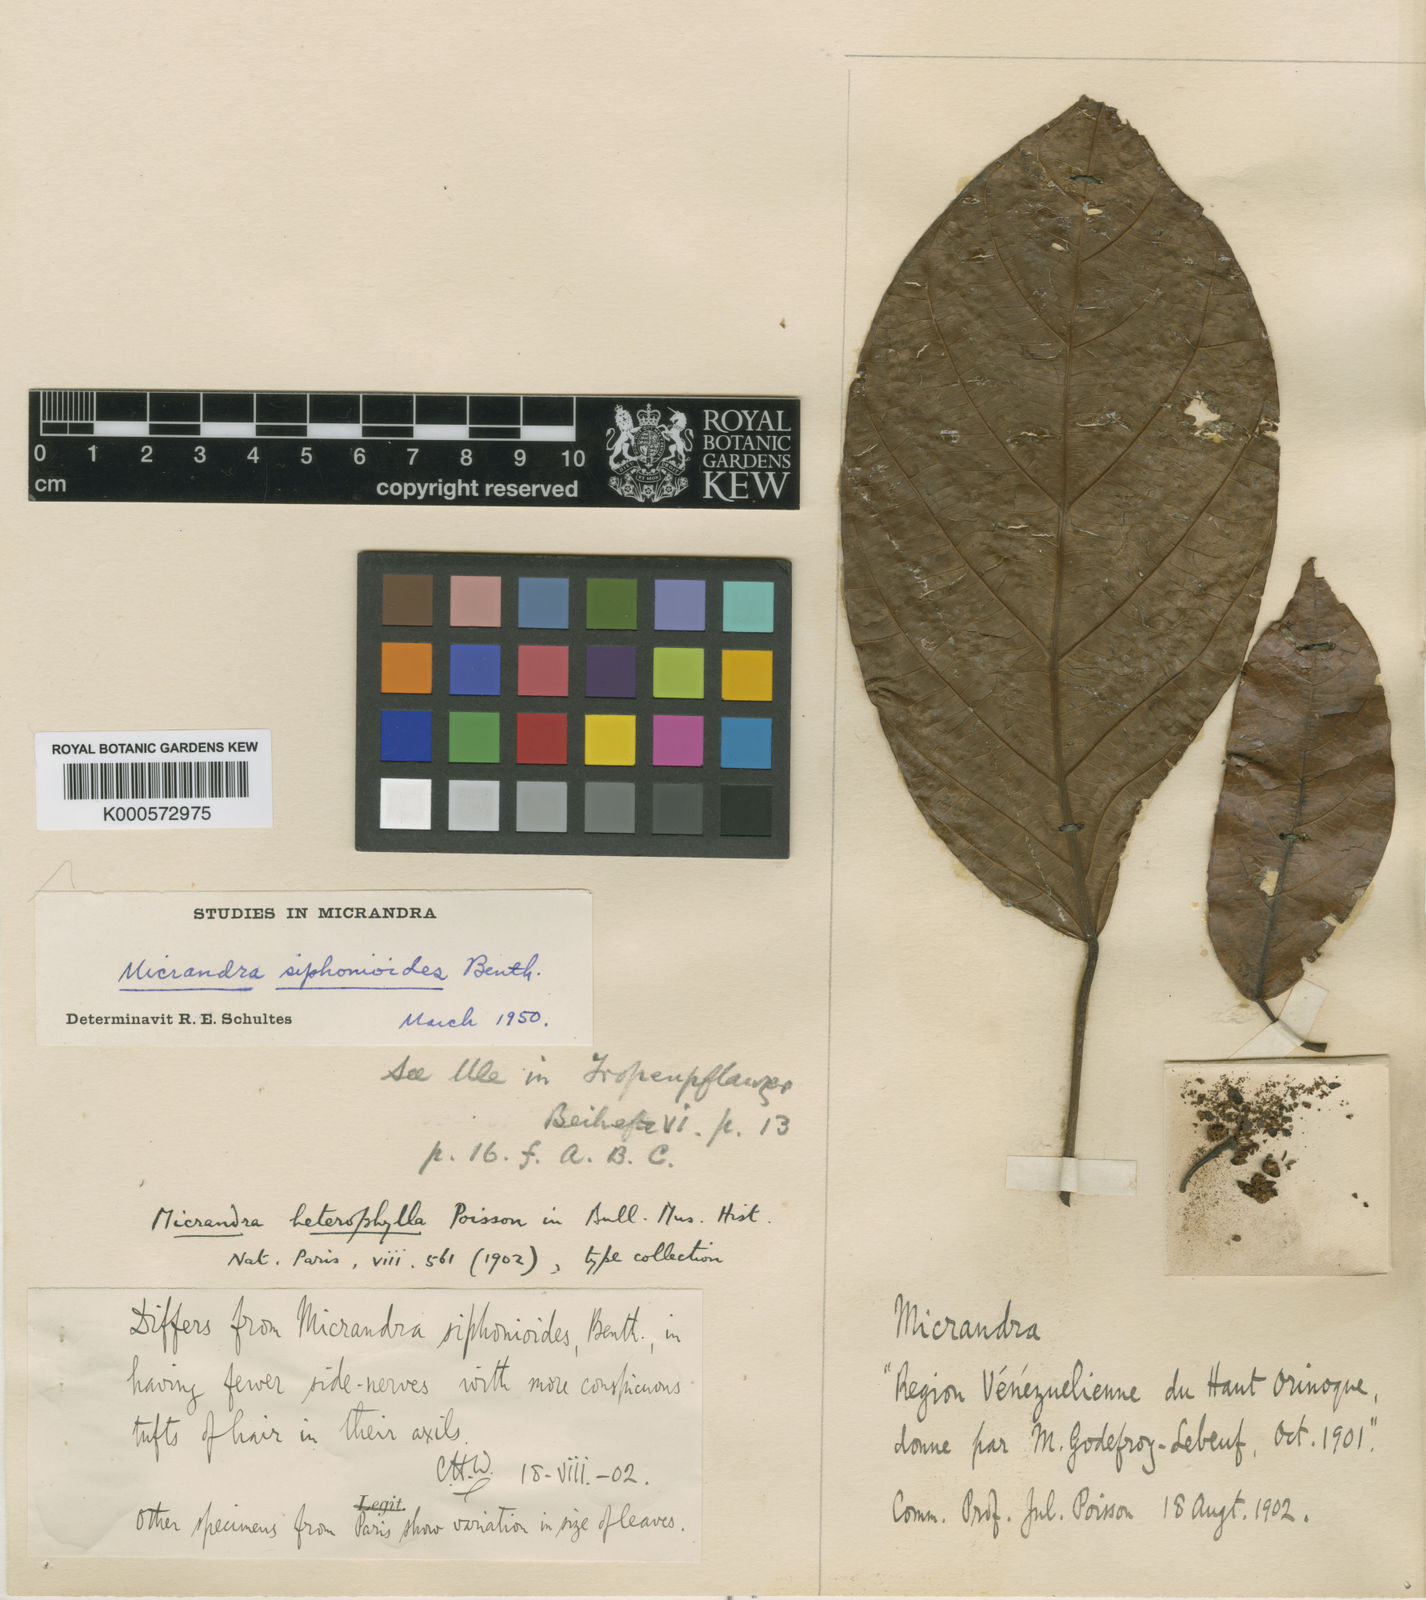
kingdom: Plantae
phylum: Tracheophyta
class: Magnoliopsida
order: Malpighiales
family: Euphorbiaceae
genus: Micrandra
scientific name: Micrandra siphonioides
